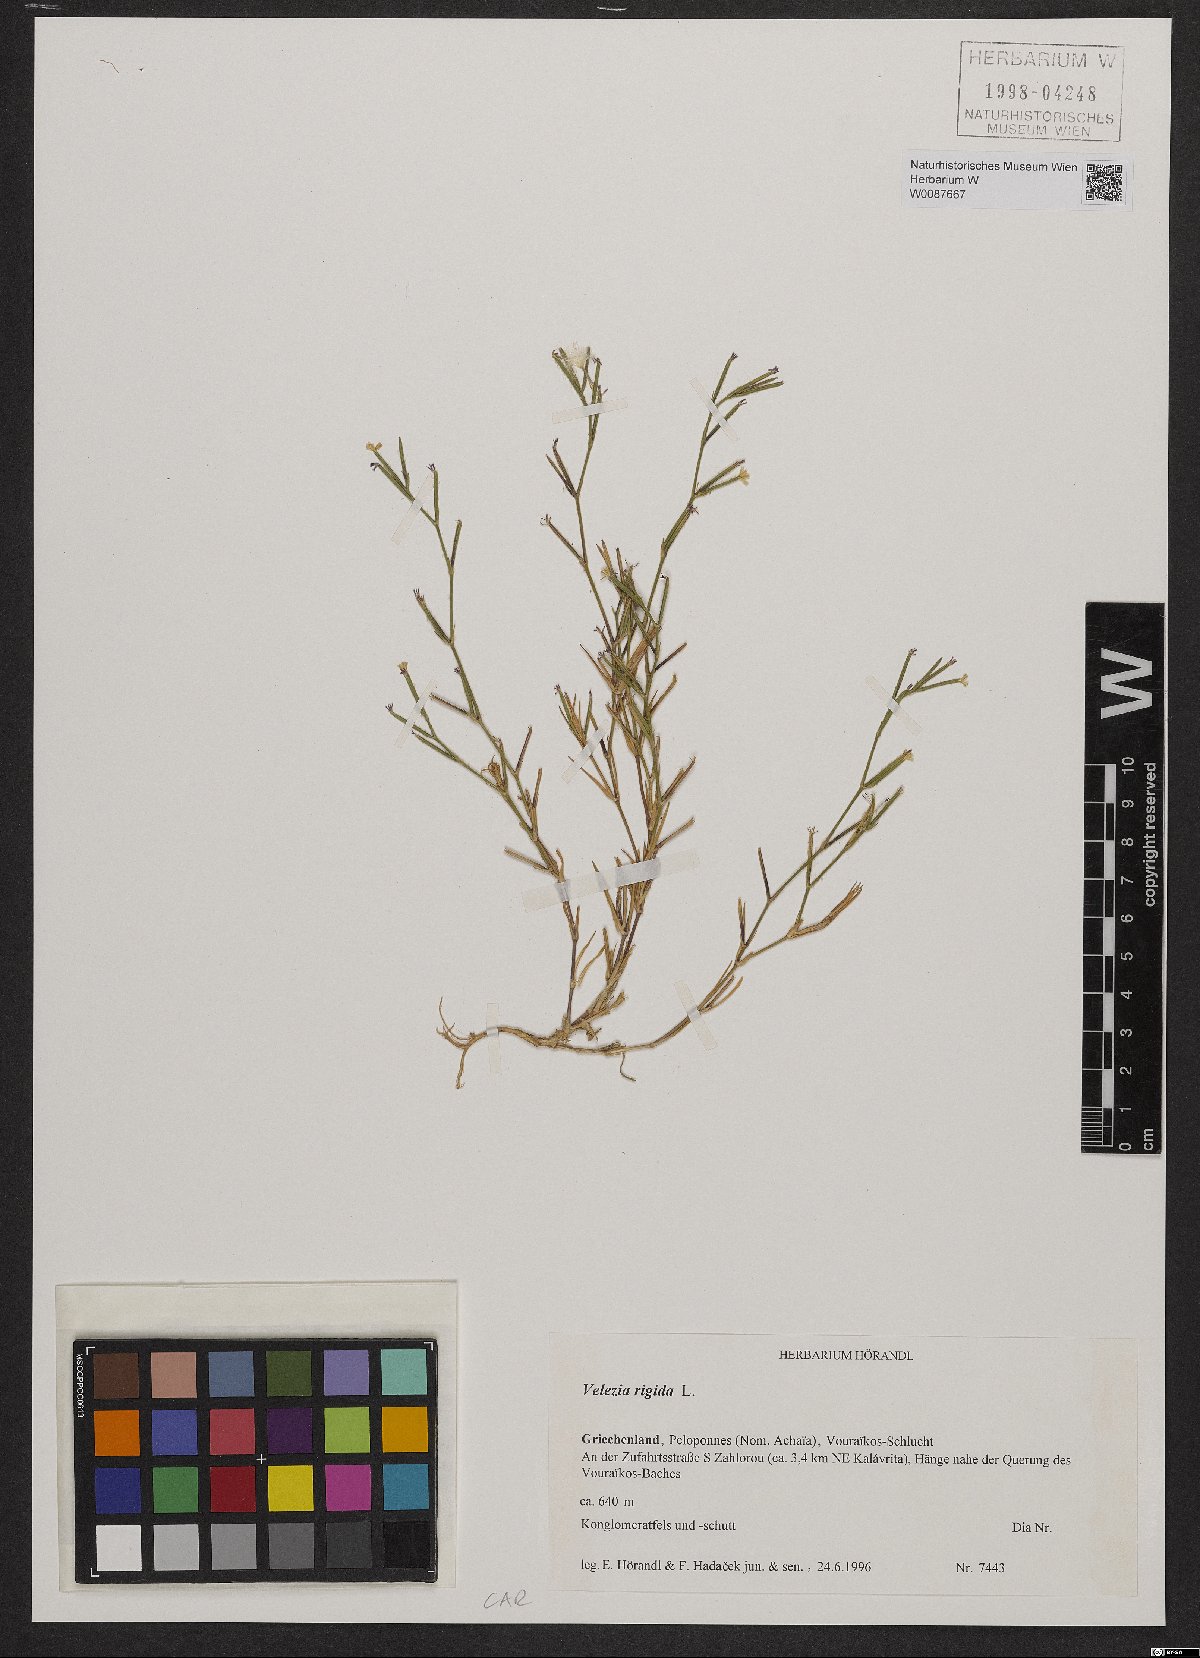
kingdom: Plantae
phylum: Tracheophyta
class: Magnoliopsida
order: Caryophyllales
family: Caryophyllaceae
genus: Dianthus
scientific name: Dianthus nudiflorus
